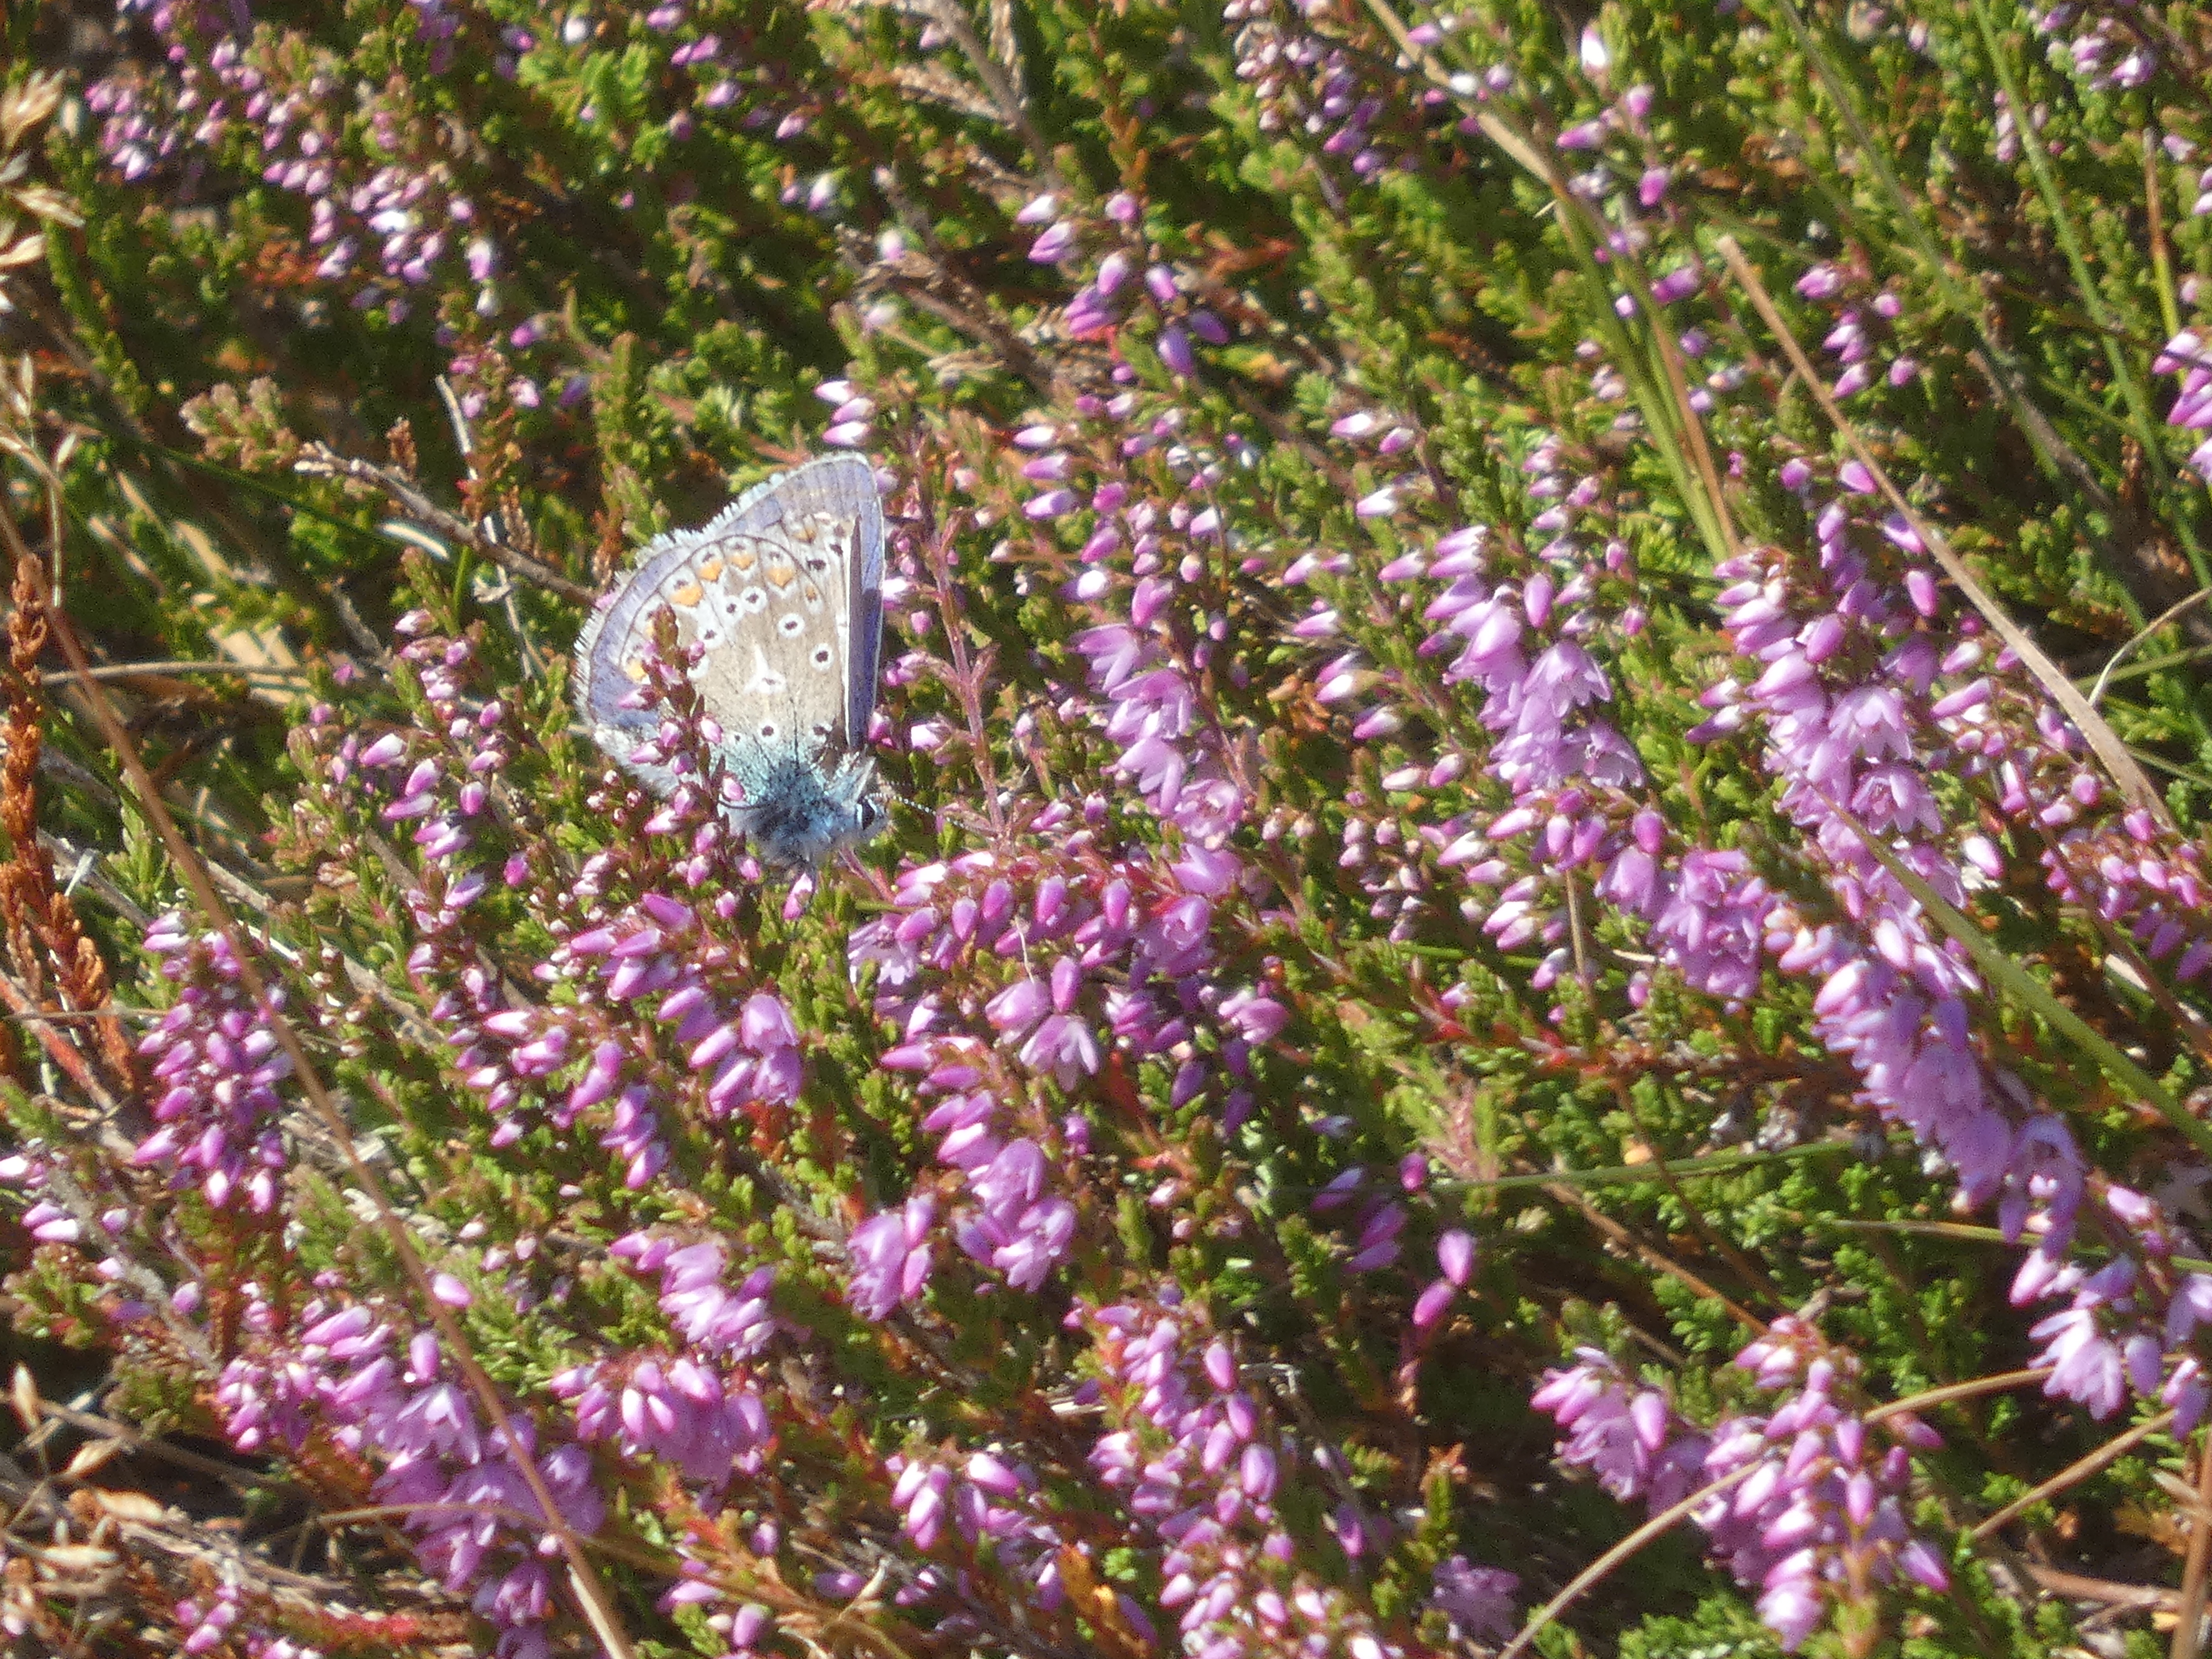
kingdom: Animalia
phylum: Arthropoda
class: Insecta
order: Lepidoptera
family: Lycaenidae
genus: Polyommatus
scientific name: Polyommatus icarus
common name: Almindelig blåfugl
